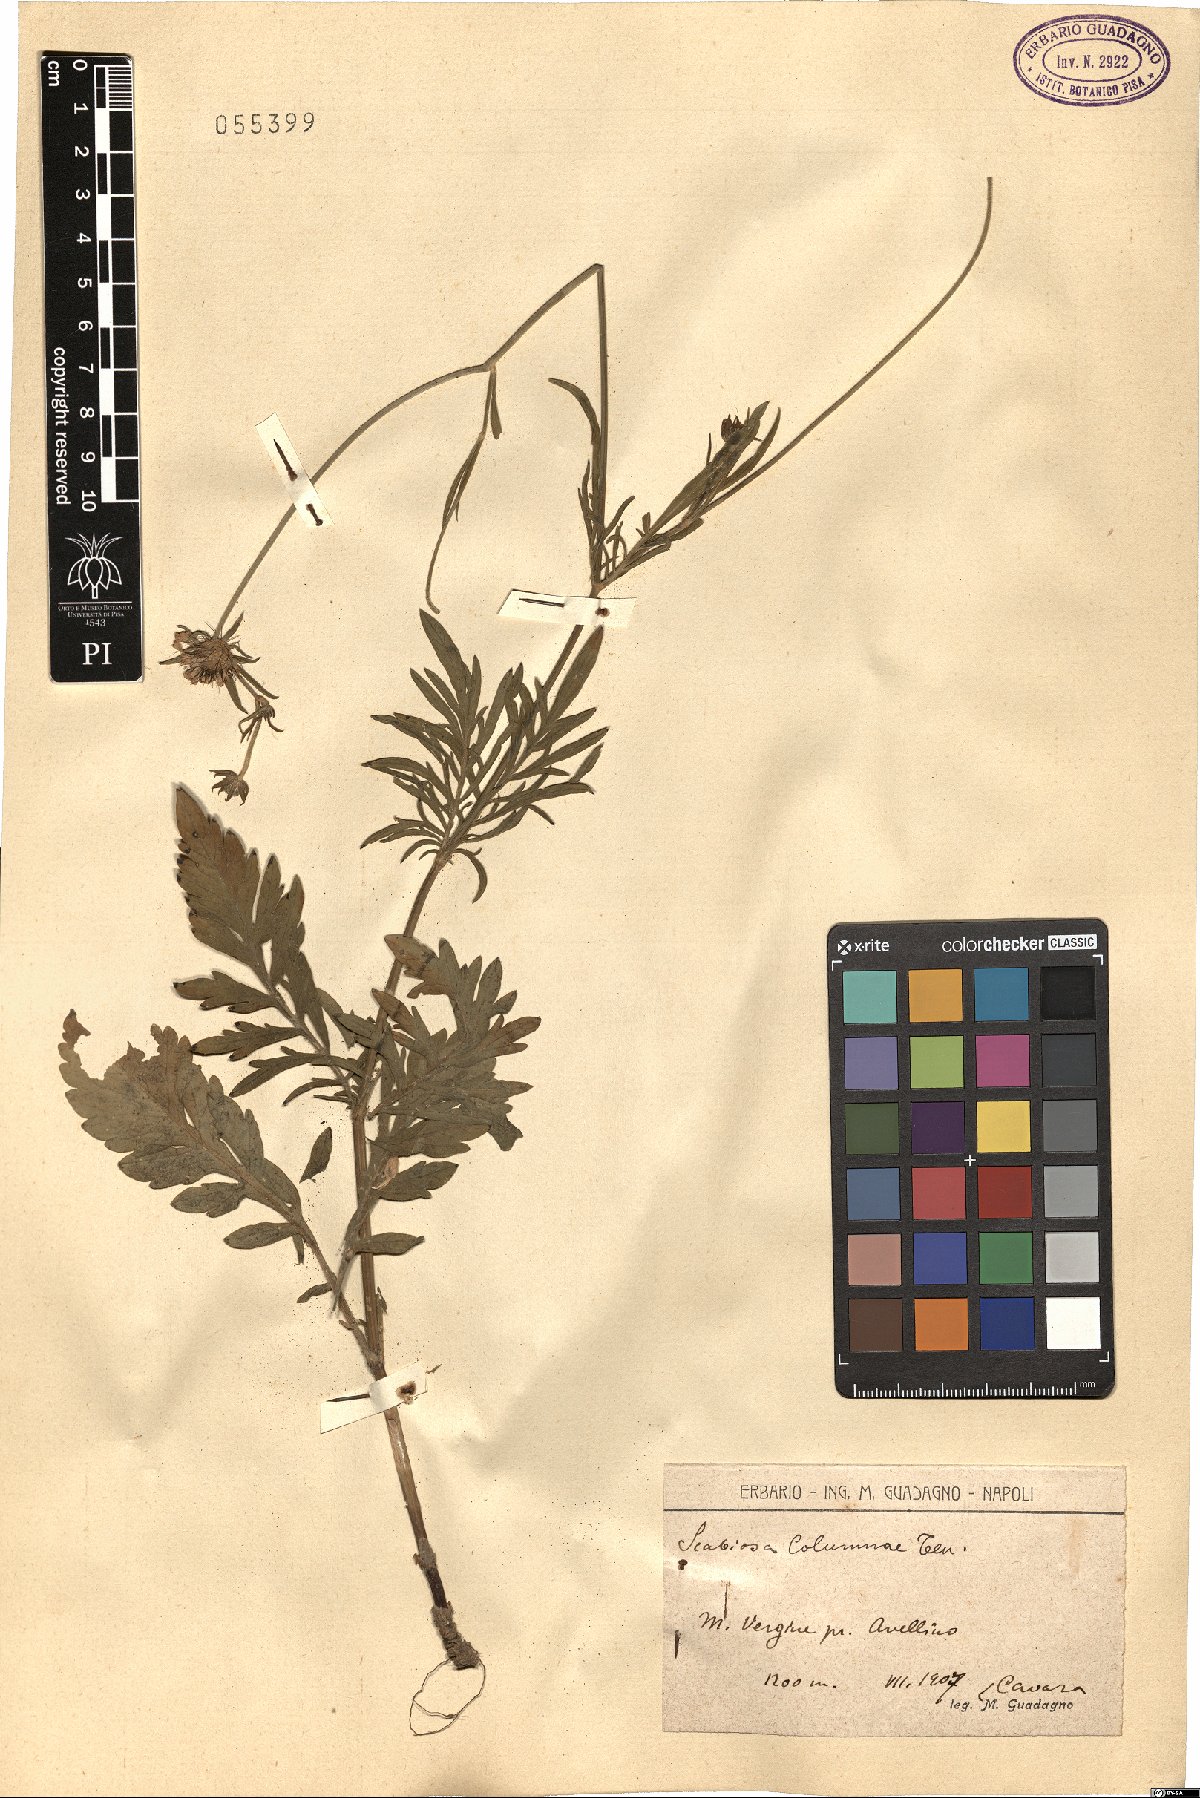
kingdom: Plantae
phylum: Tracheophyta
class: Magnoliopsida
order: Dipsacales
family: Caprifoliaceae
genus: Scabiosa
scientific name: Scabiosa holosericea
